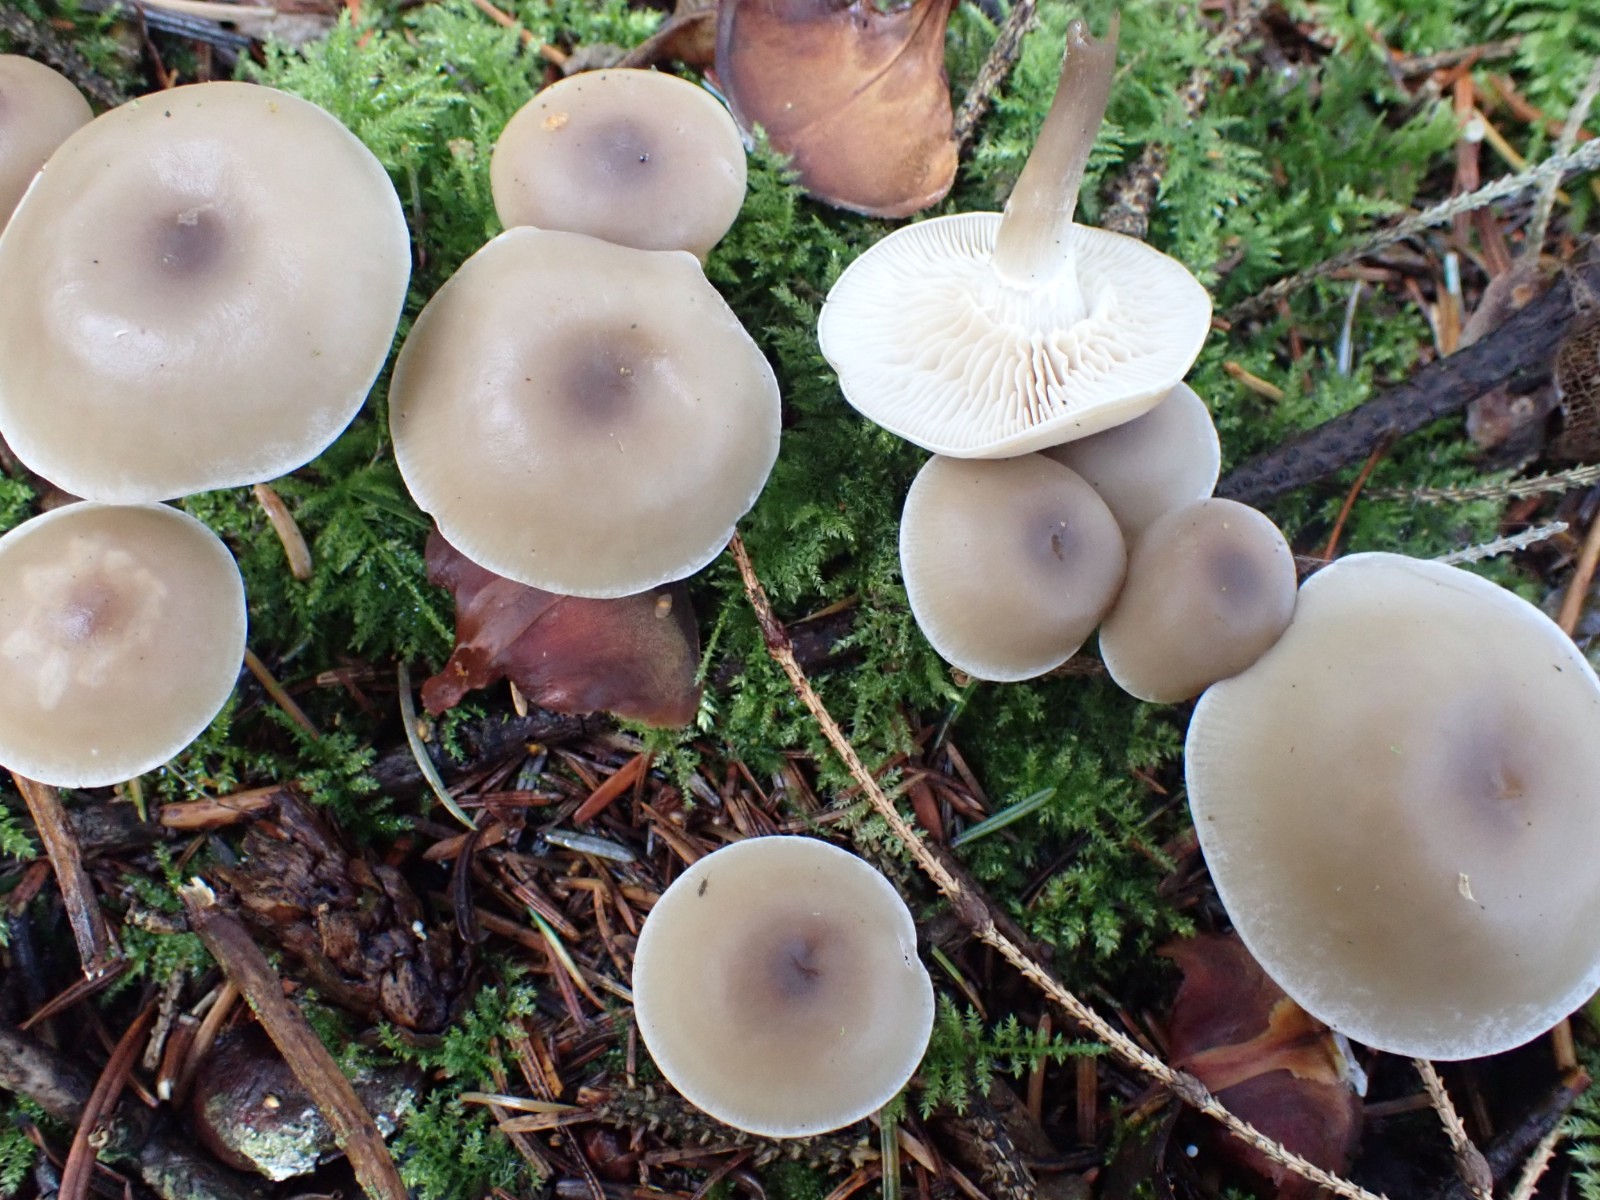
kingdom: Fungi
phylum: Basidiomycota
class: Agaricomycetes
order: Agaricales
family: Tricholomataceae
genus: Clitocybe
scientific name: Clitocybe metachroa
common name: grå tragthat
